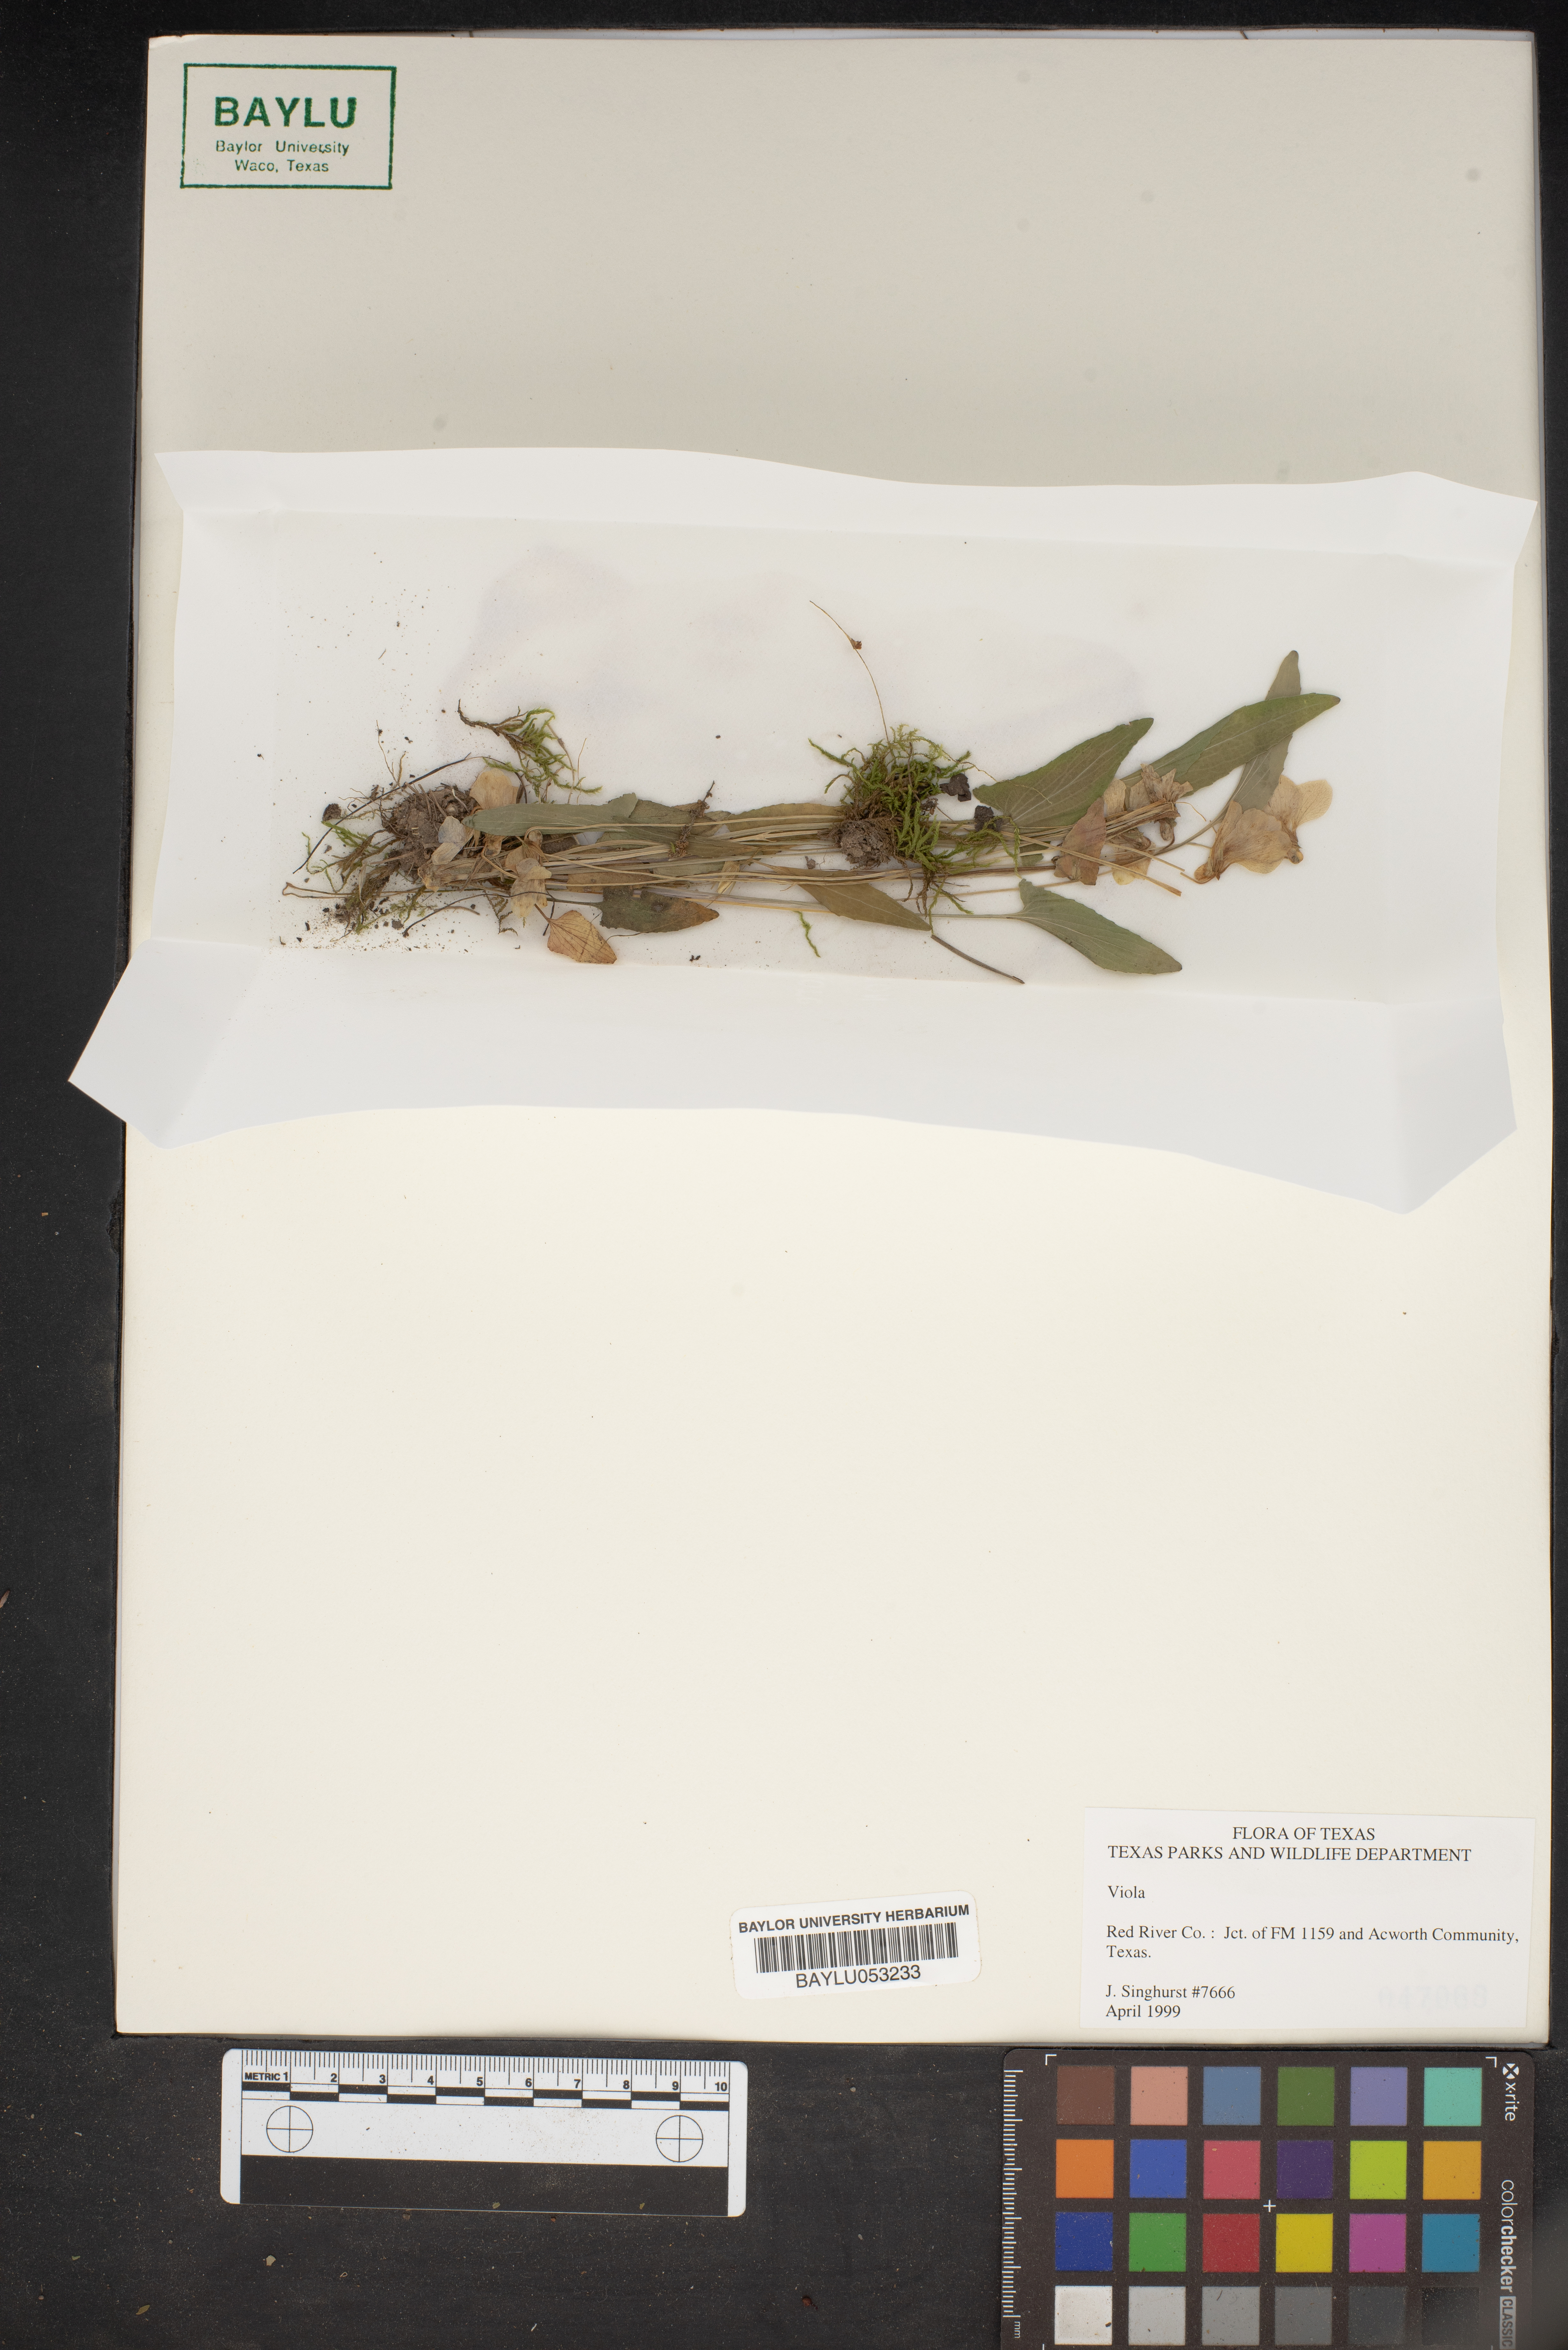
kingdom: Plantae
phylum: Tracheophyta
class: Magnoliopsida
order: Malpighiales
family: Violaceae
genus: Viola
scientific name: Viola
